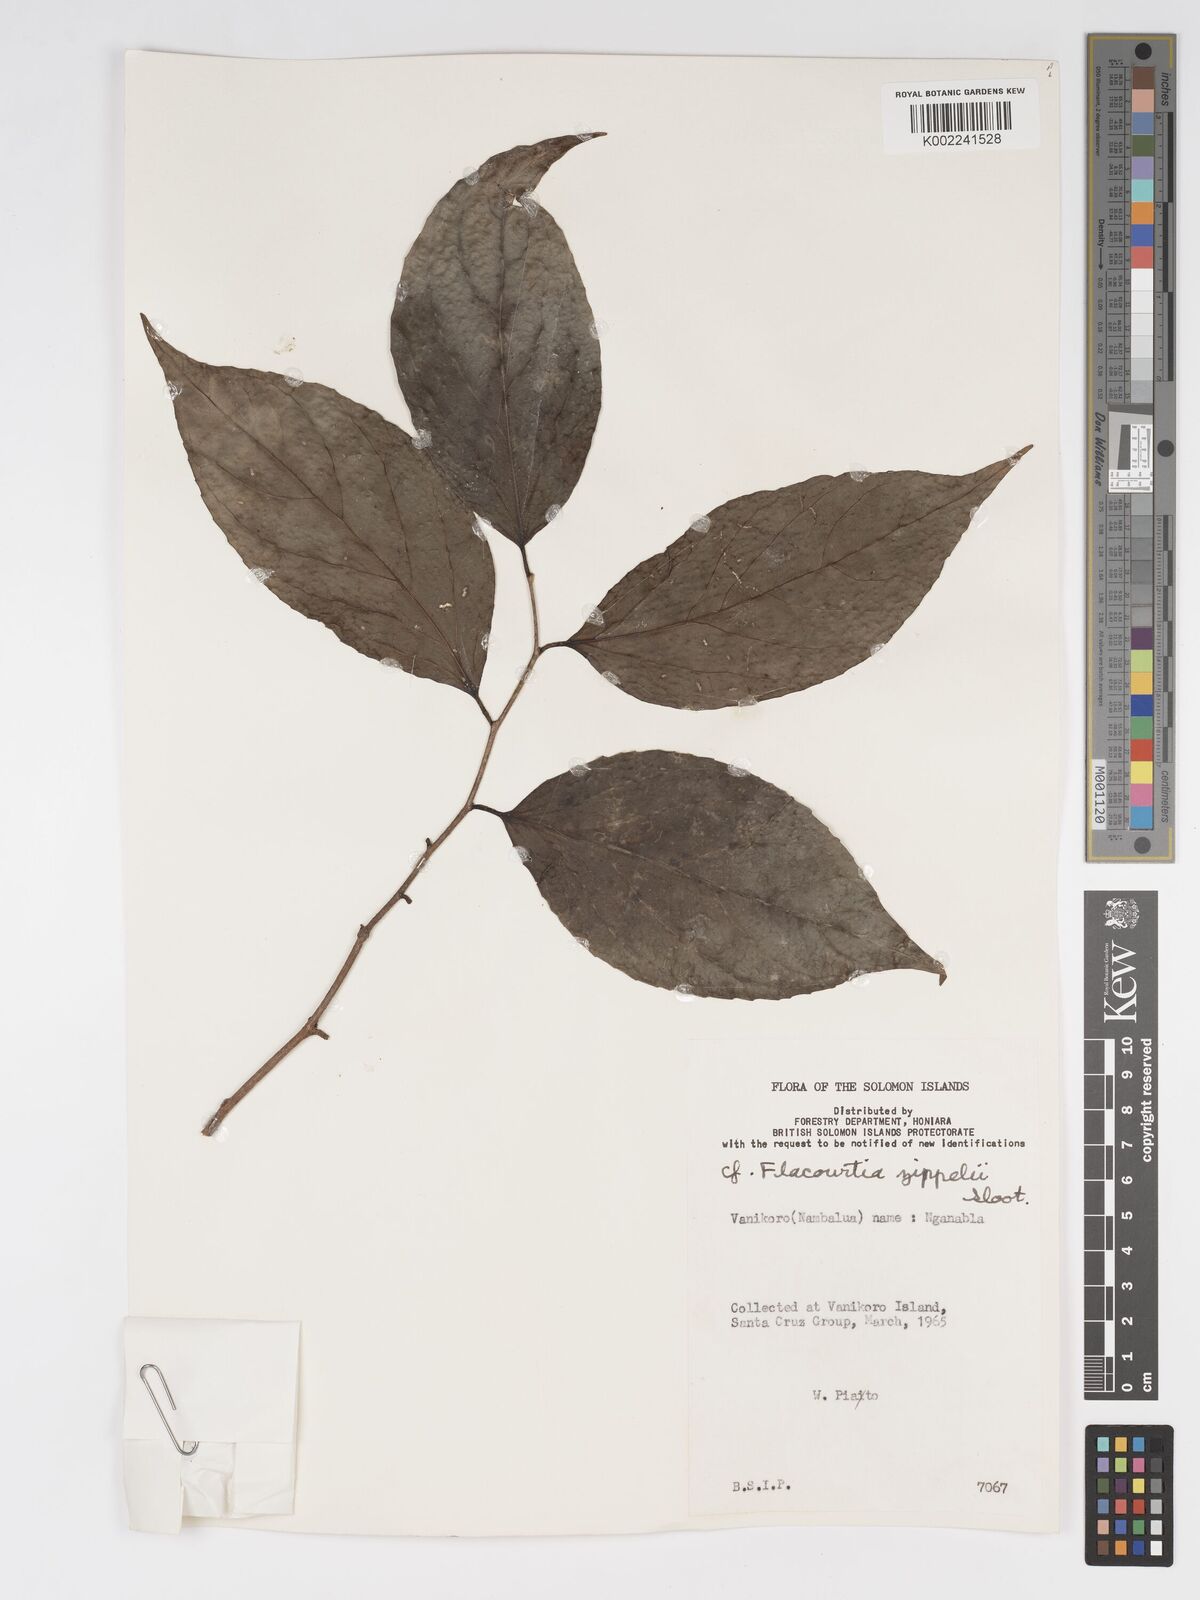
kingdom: Plantae
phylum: Tracheophyta
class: Magnoliopsida
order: Malpighiales
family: Salicaceae
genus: Flacourtia
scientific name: Flacourtia zippelii
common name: Zippeli plum
